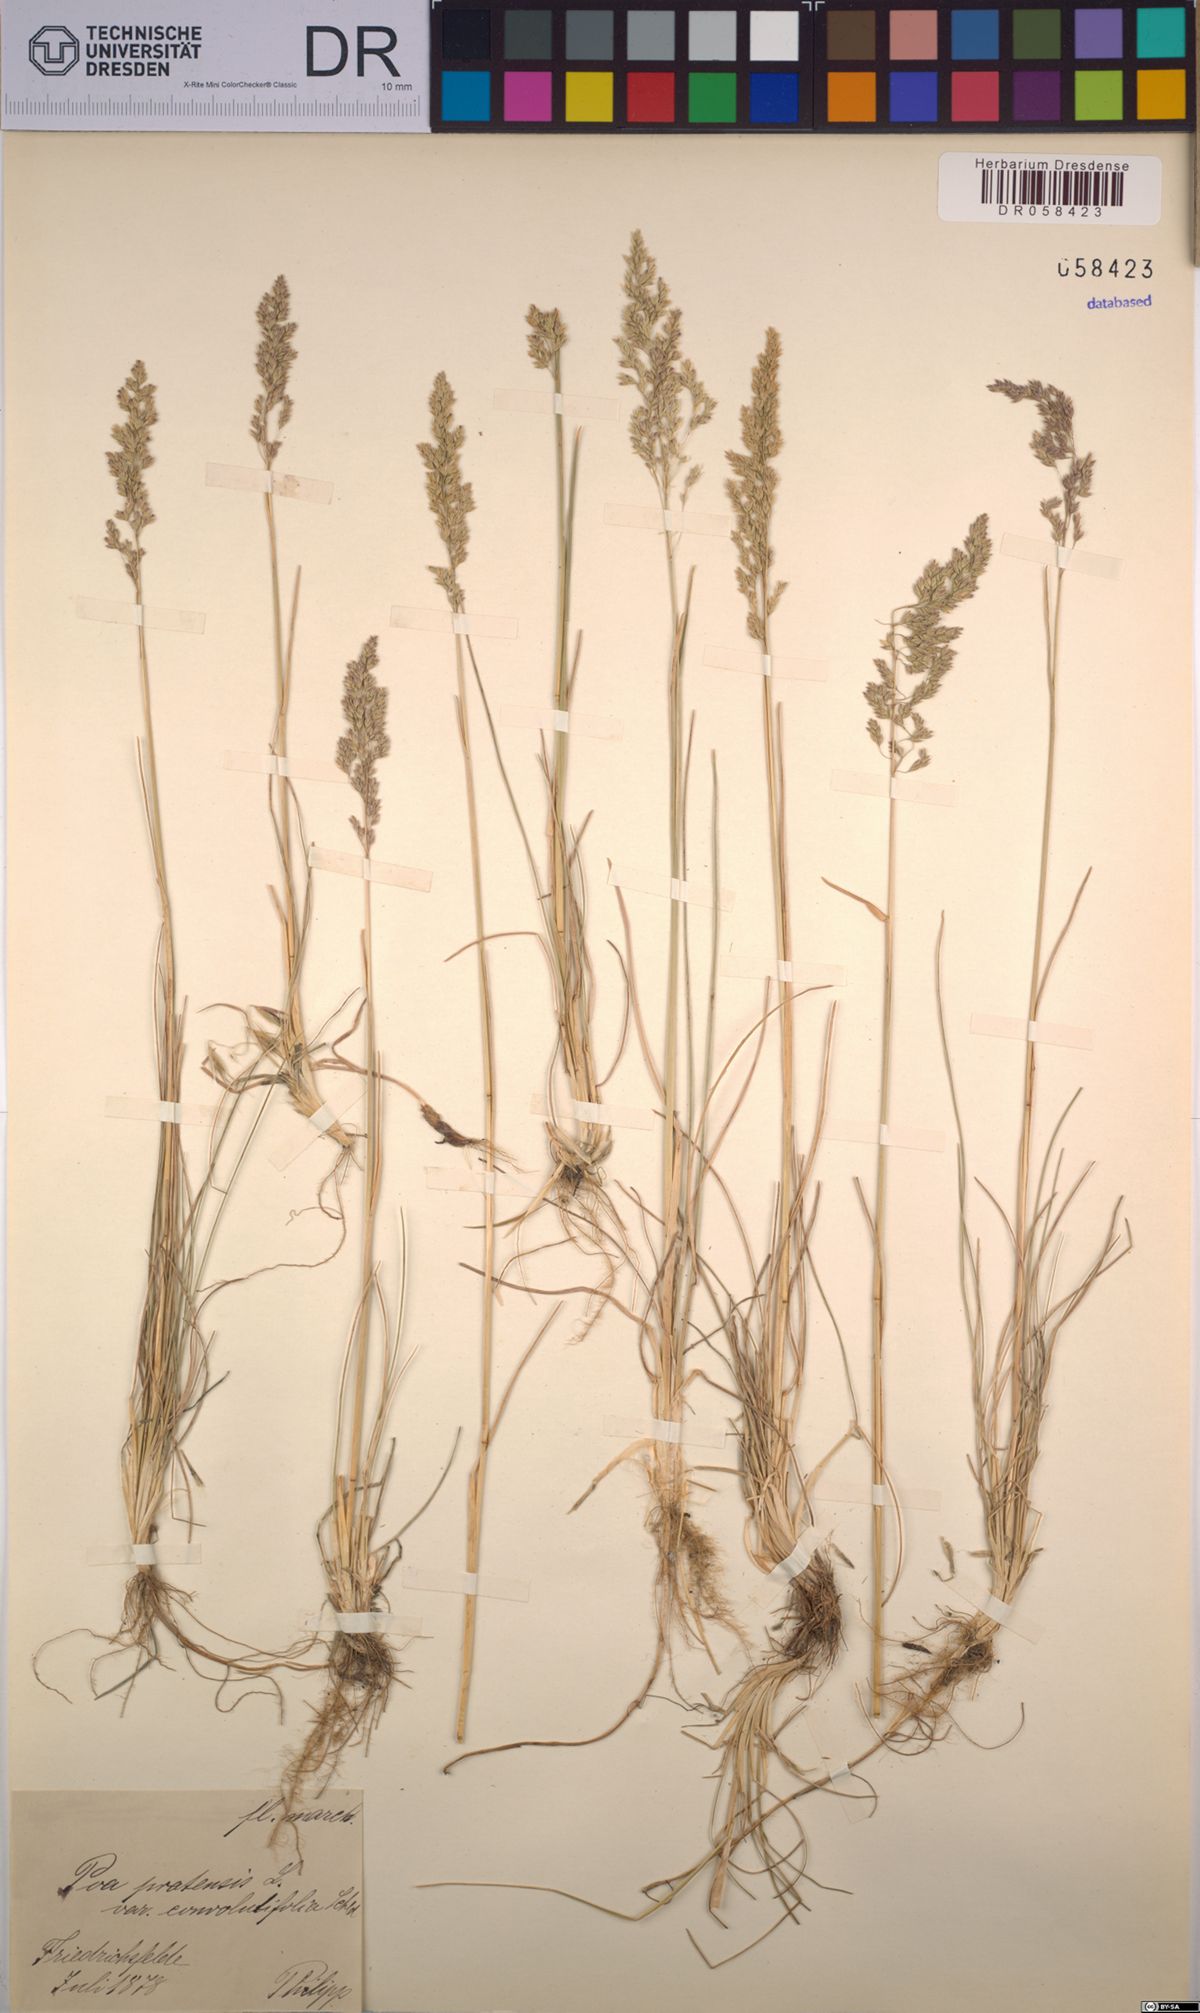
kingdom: Plantae
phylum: Tracheophyta
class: Liliopsida
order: Poales
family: Poaceae
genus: Poa
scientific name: Poa pratensis
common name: Kentucky bluegrass
